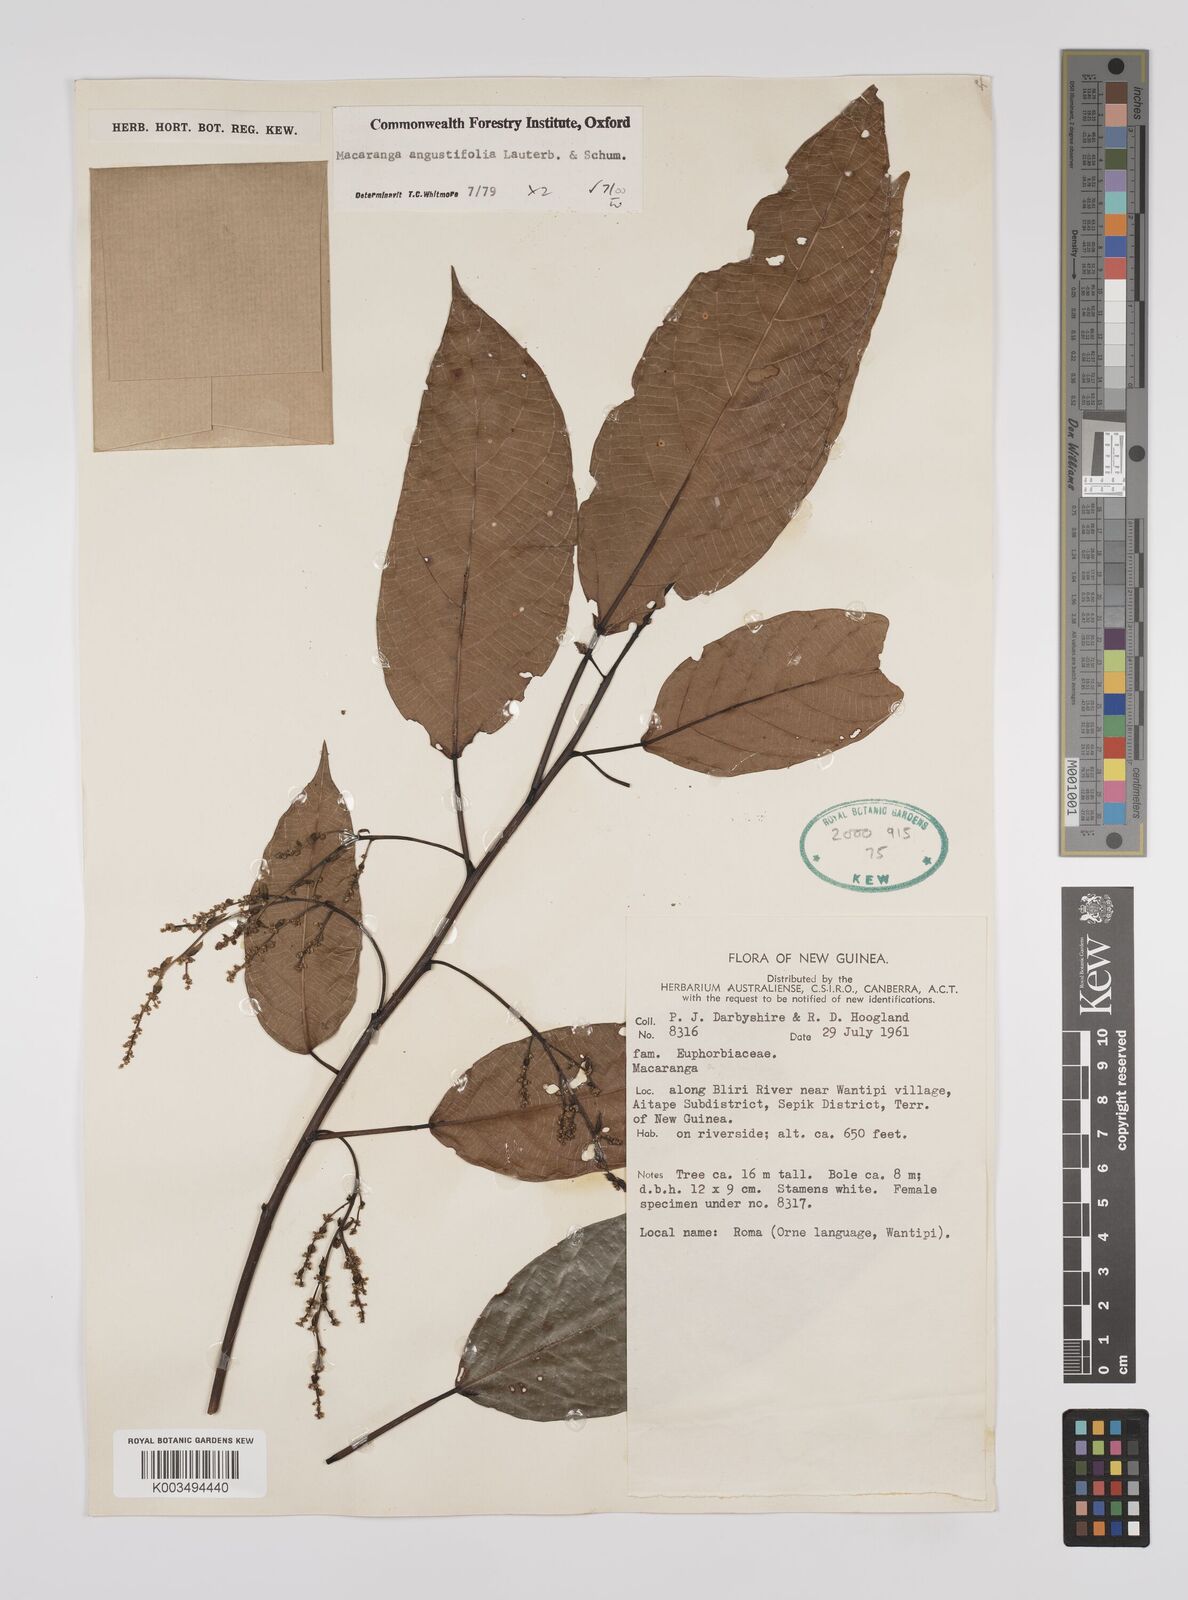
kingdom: Plantae
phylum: Tracheophyta
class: Magnoliopsida
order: Malpighiales
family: Euphorbiaceae
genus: Macaranga
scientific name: Macaranga angustifolia
